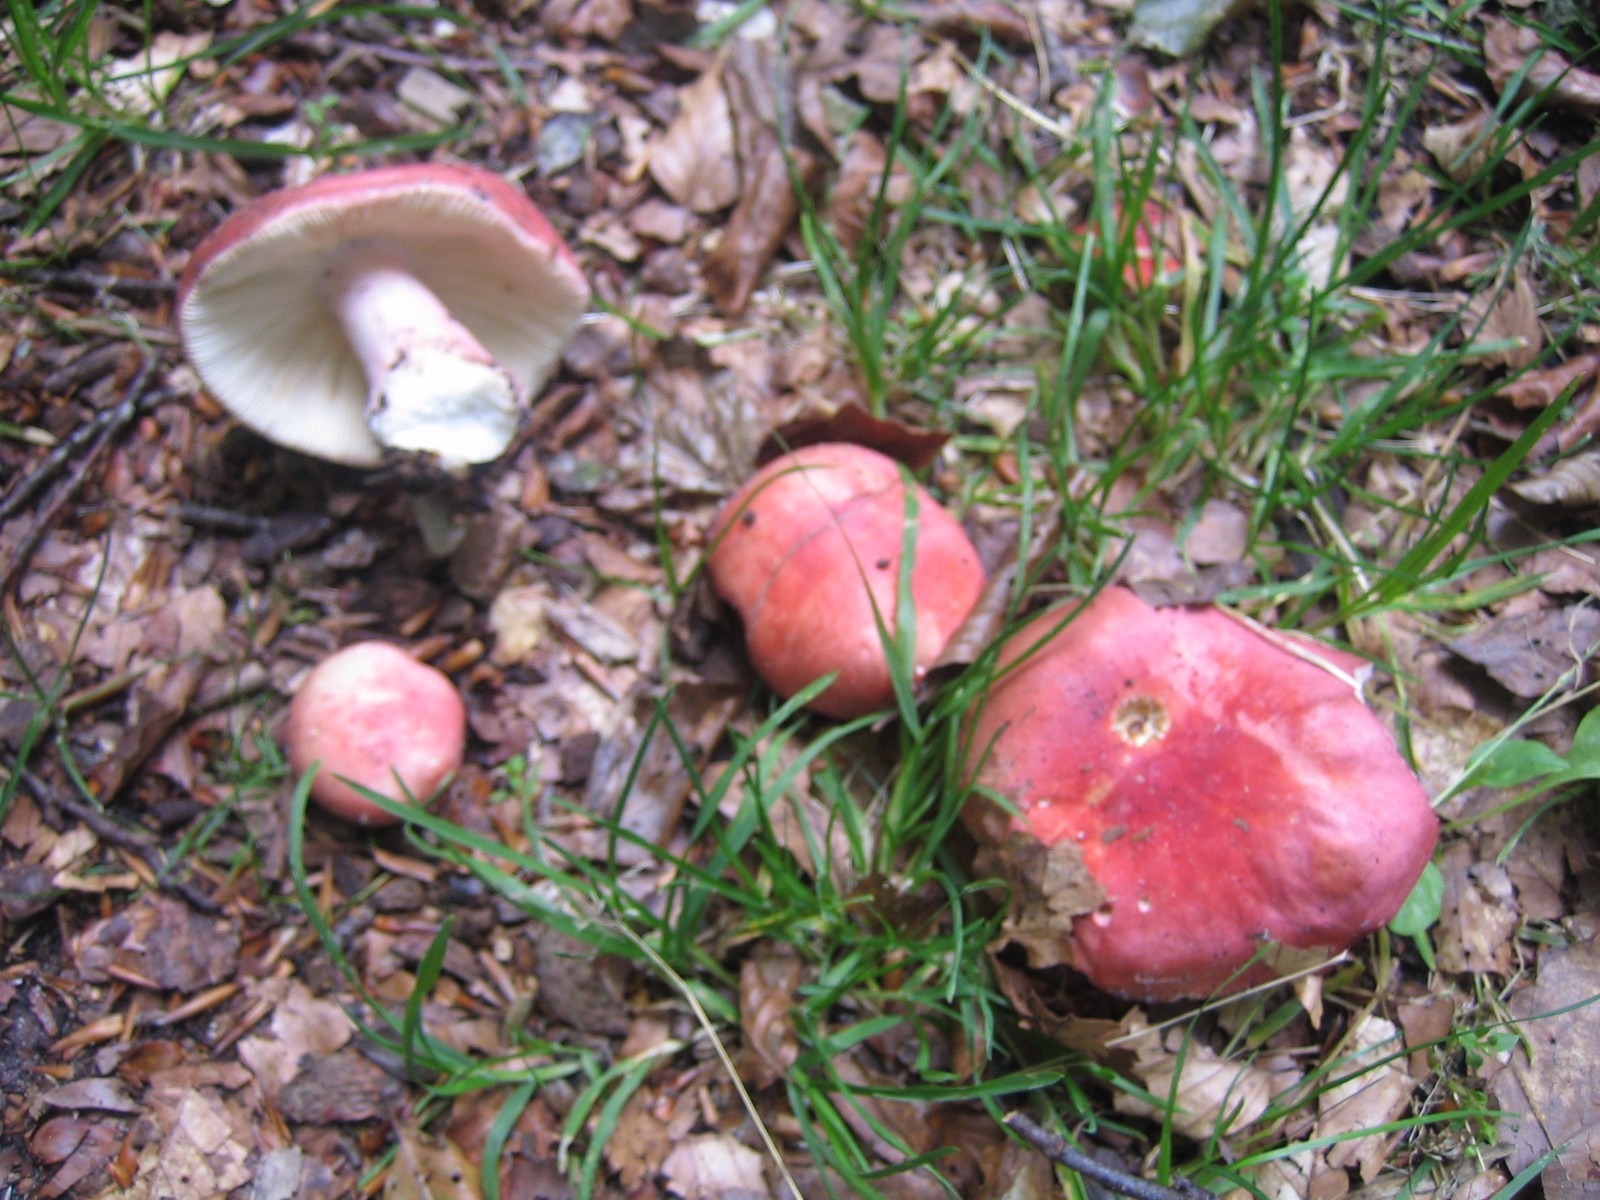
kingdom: Fungi
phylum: Basidiomycota
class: Agaricomycetes
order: Russulales
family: Russulaceae
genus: Russula
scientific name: Russula rosea
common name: fastkødet skørhat
